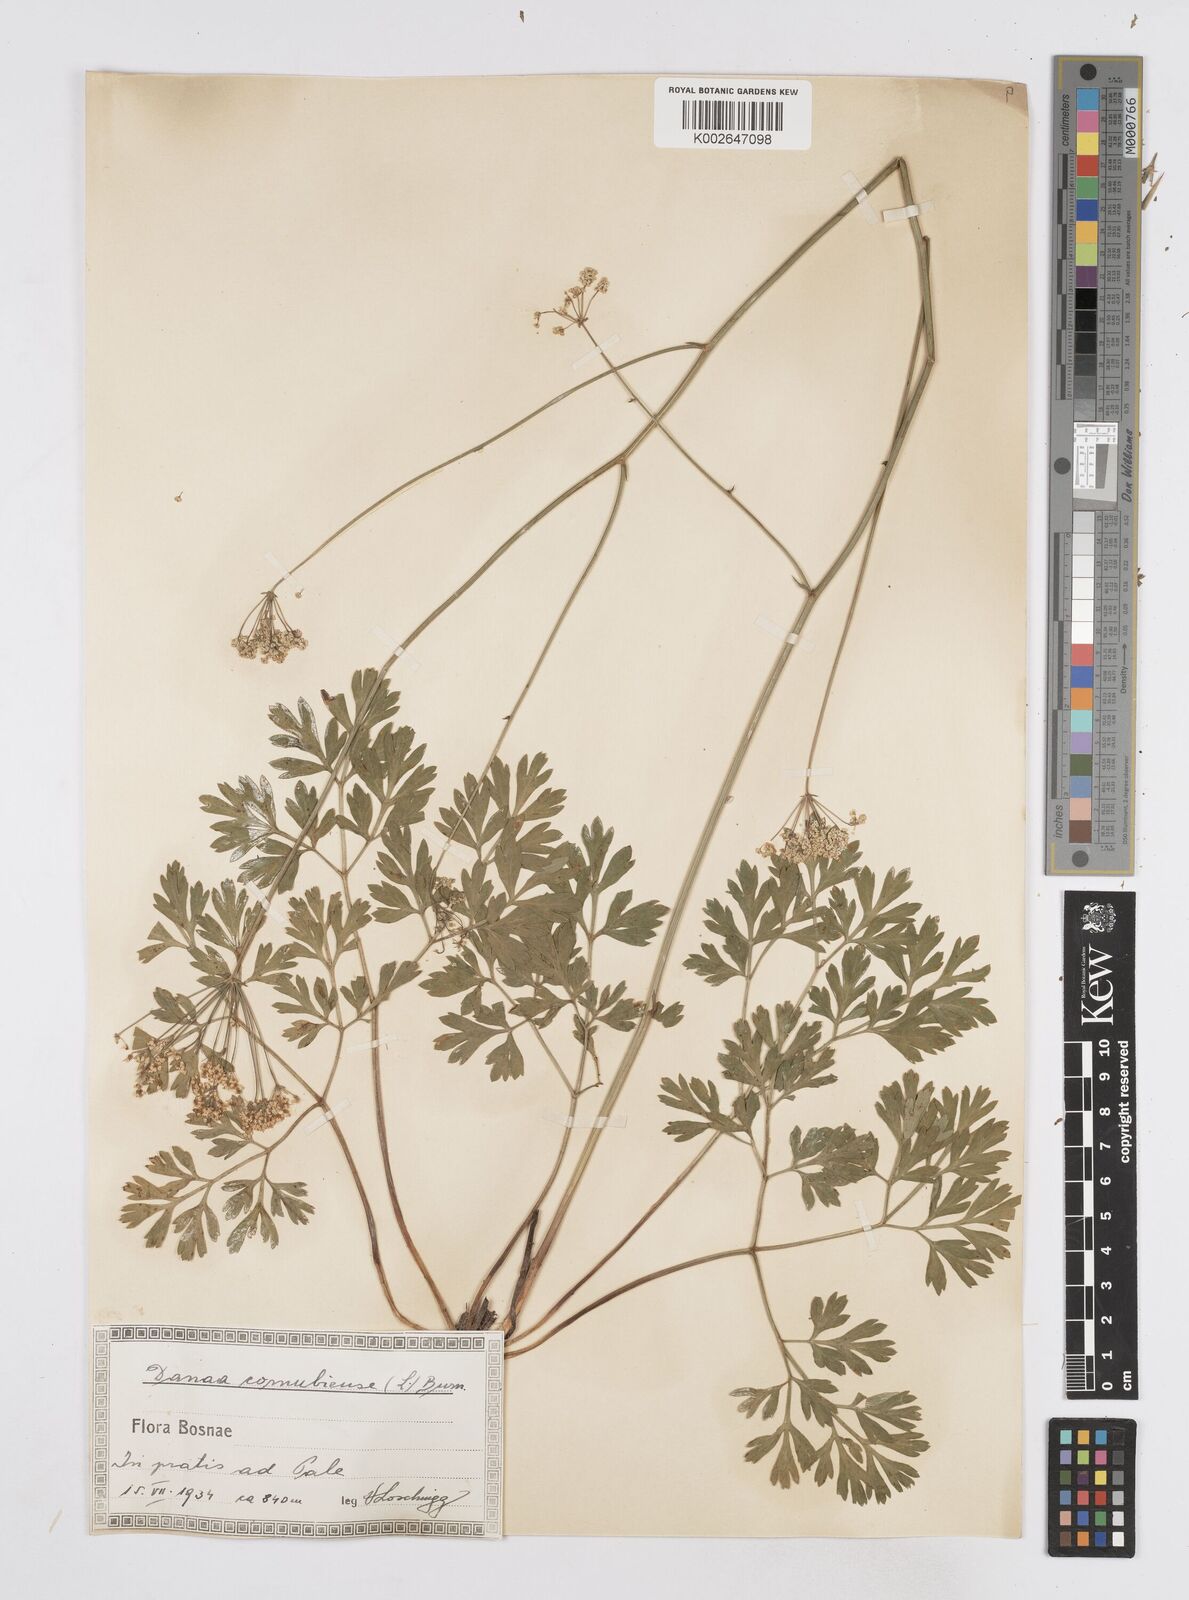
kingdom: Plantae
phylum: Tracheophyta
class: Magnoliopsida
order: Apiales
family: Apiaceae
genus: Physospermum
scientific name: Physospermum cornubiense
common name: Bladderseed
